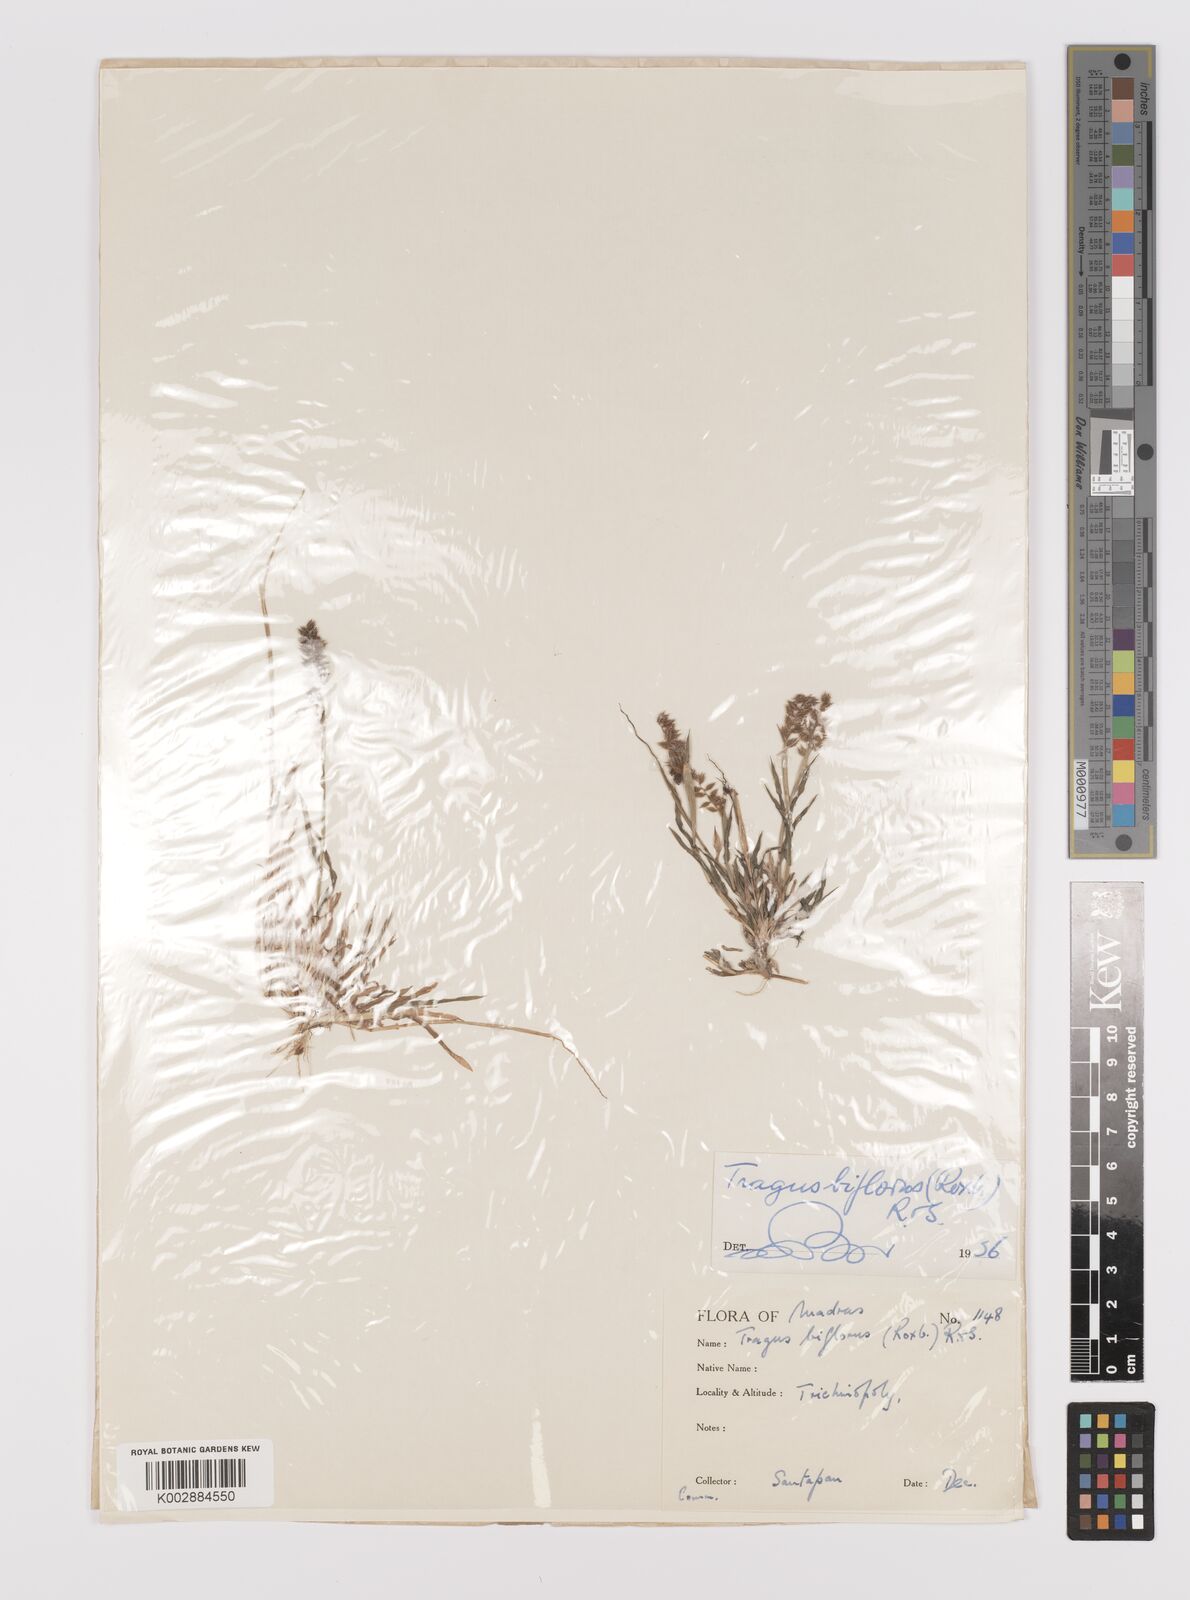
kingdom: Plantae
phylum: Tracheophyta
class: Liliopsida
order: Poales
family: Poaceae
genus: Tragus
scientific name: Tragus mongolorum
